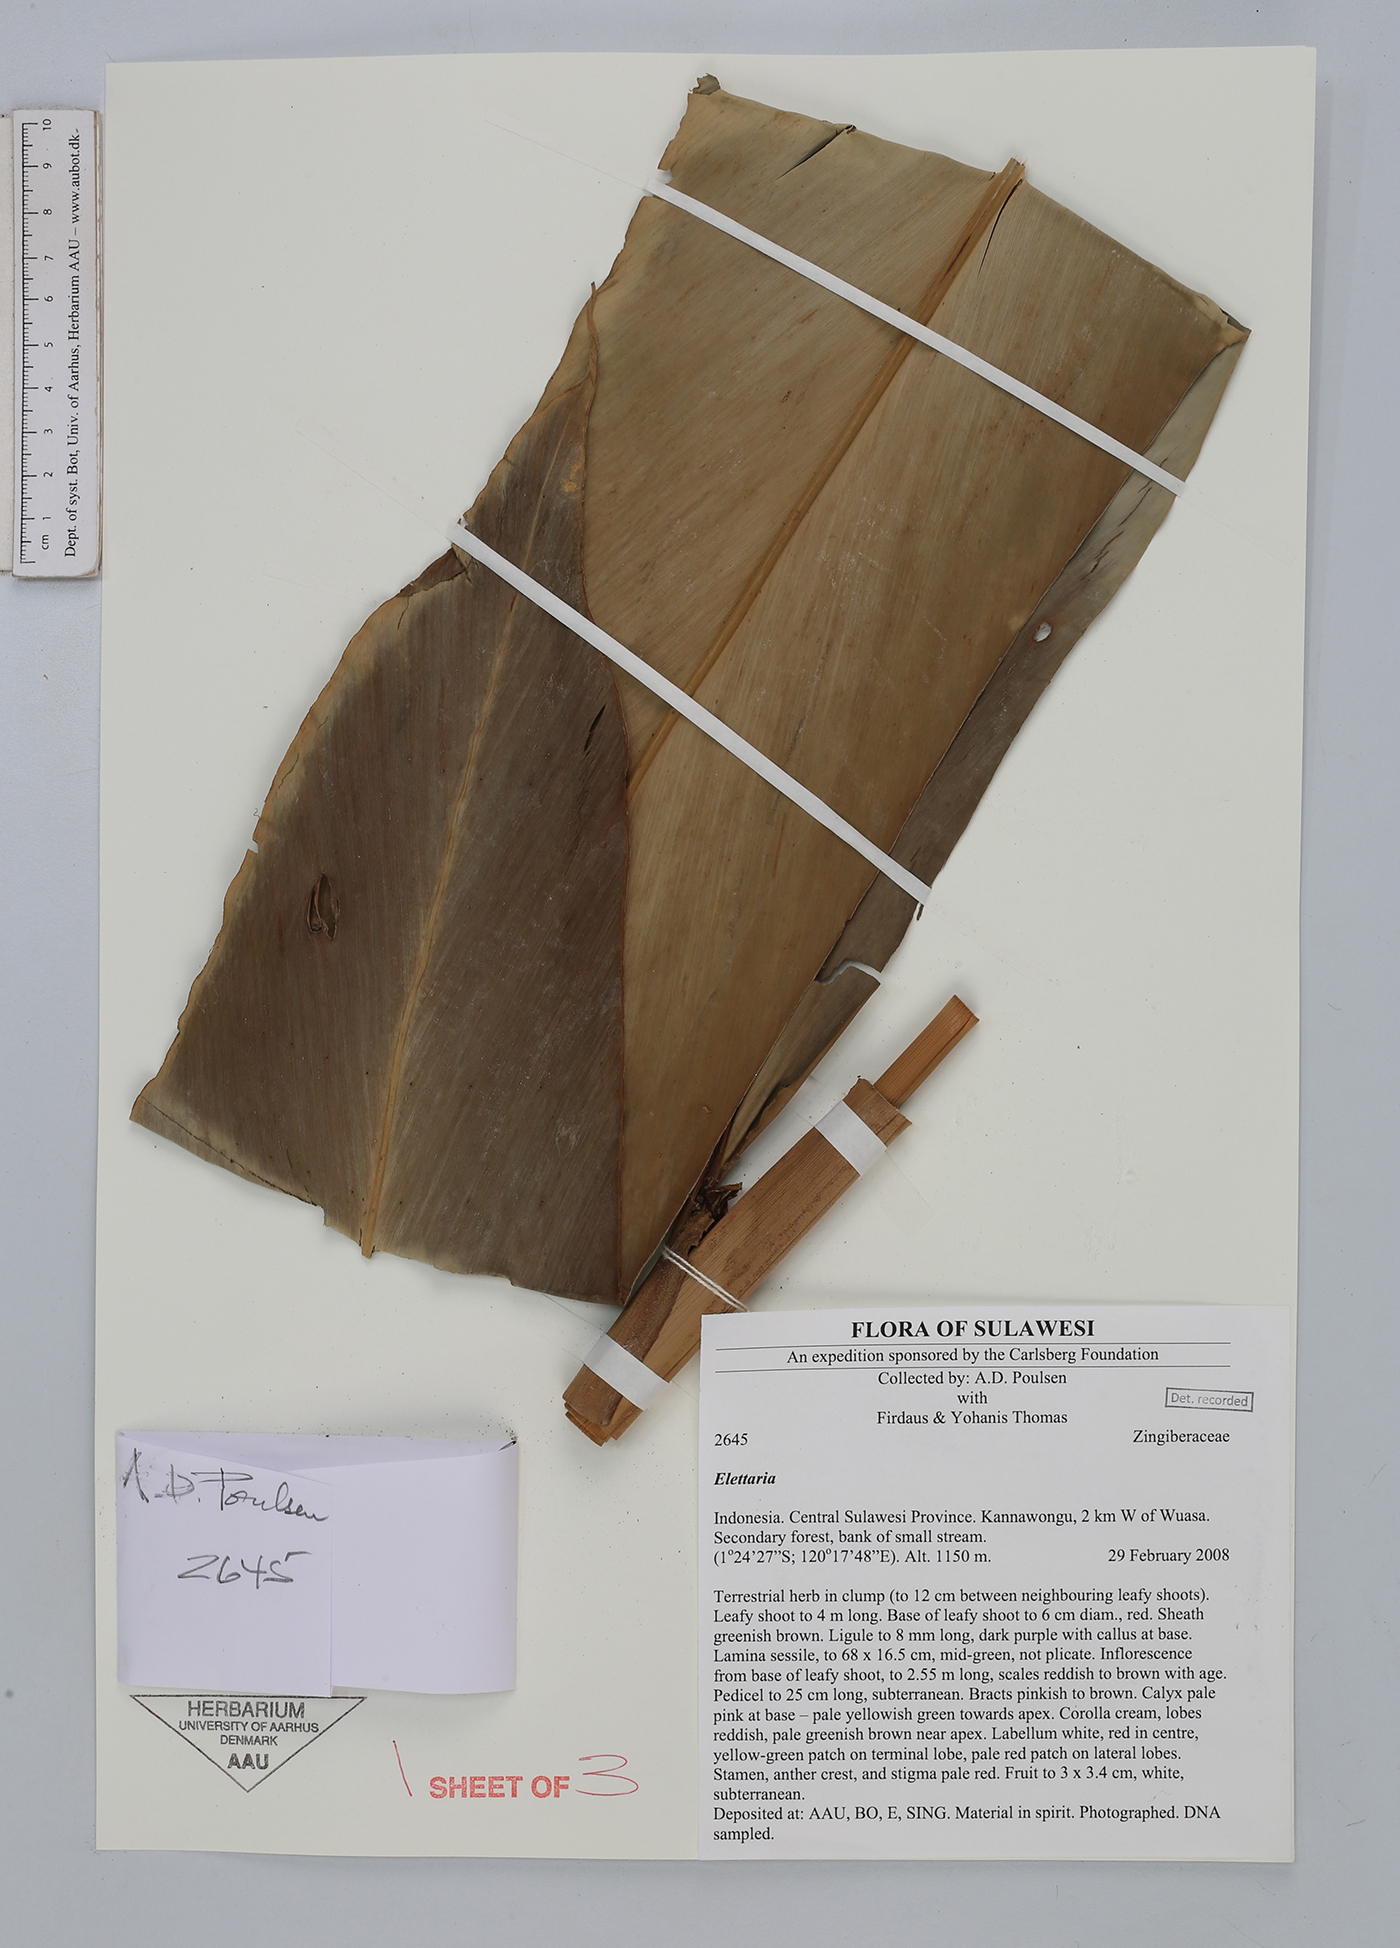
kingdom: Plantae
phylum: Tracheophyta
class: Liliopsida
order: Zingiberales
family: Zingiberaceae
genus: Sulettaria
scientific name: Sulettaria
